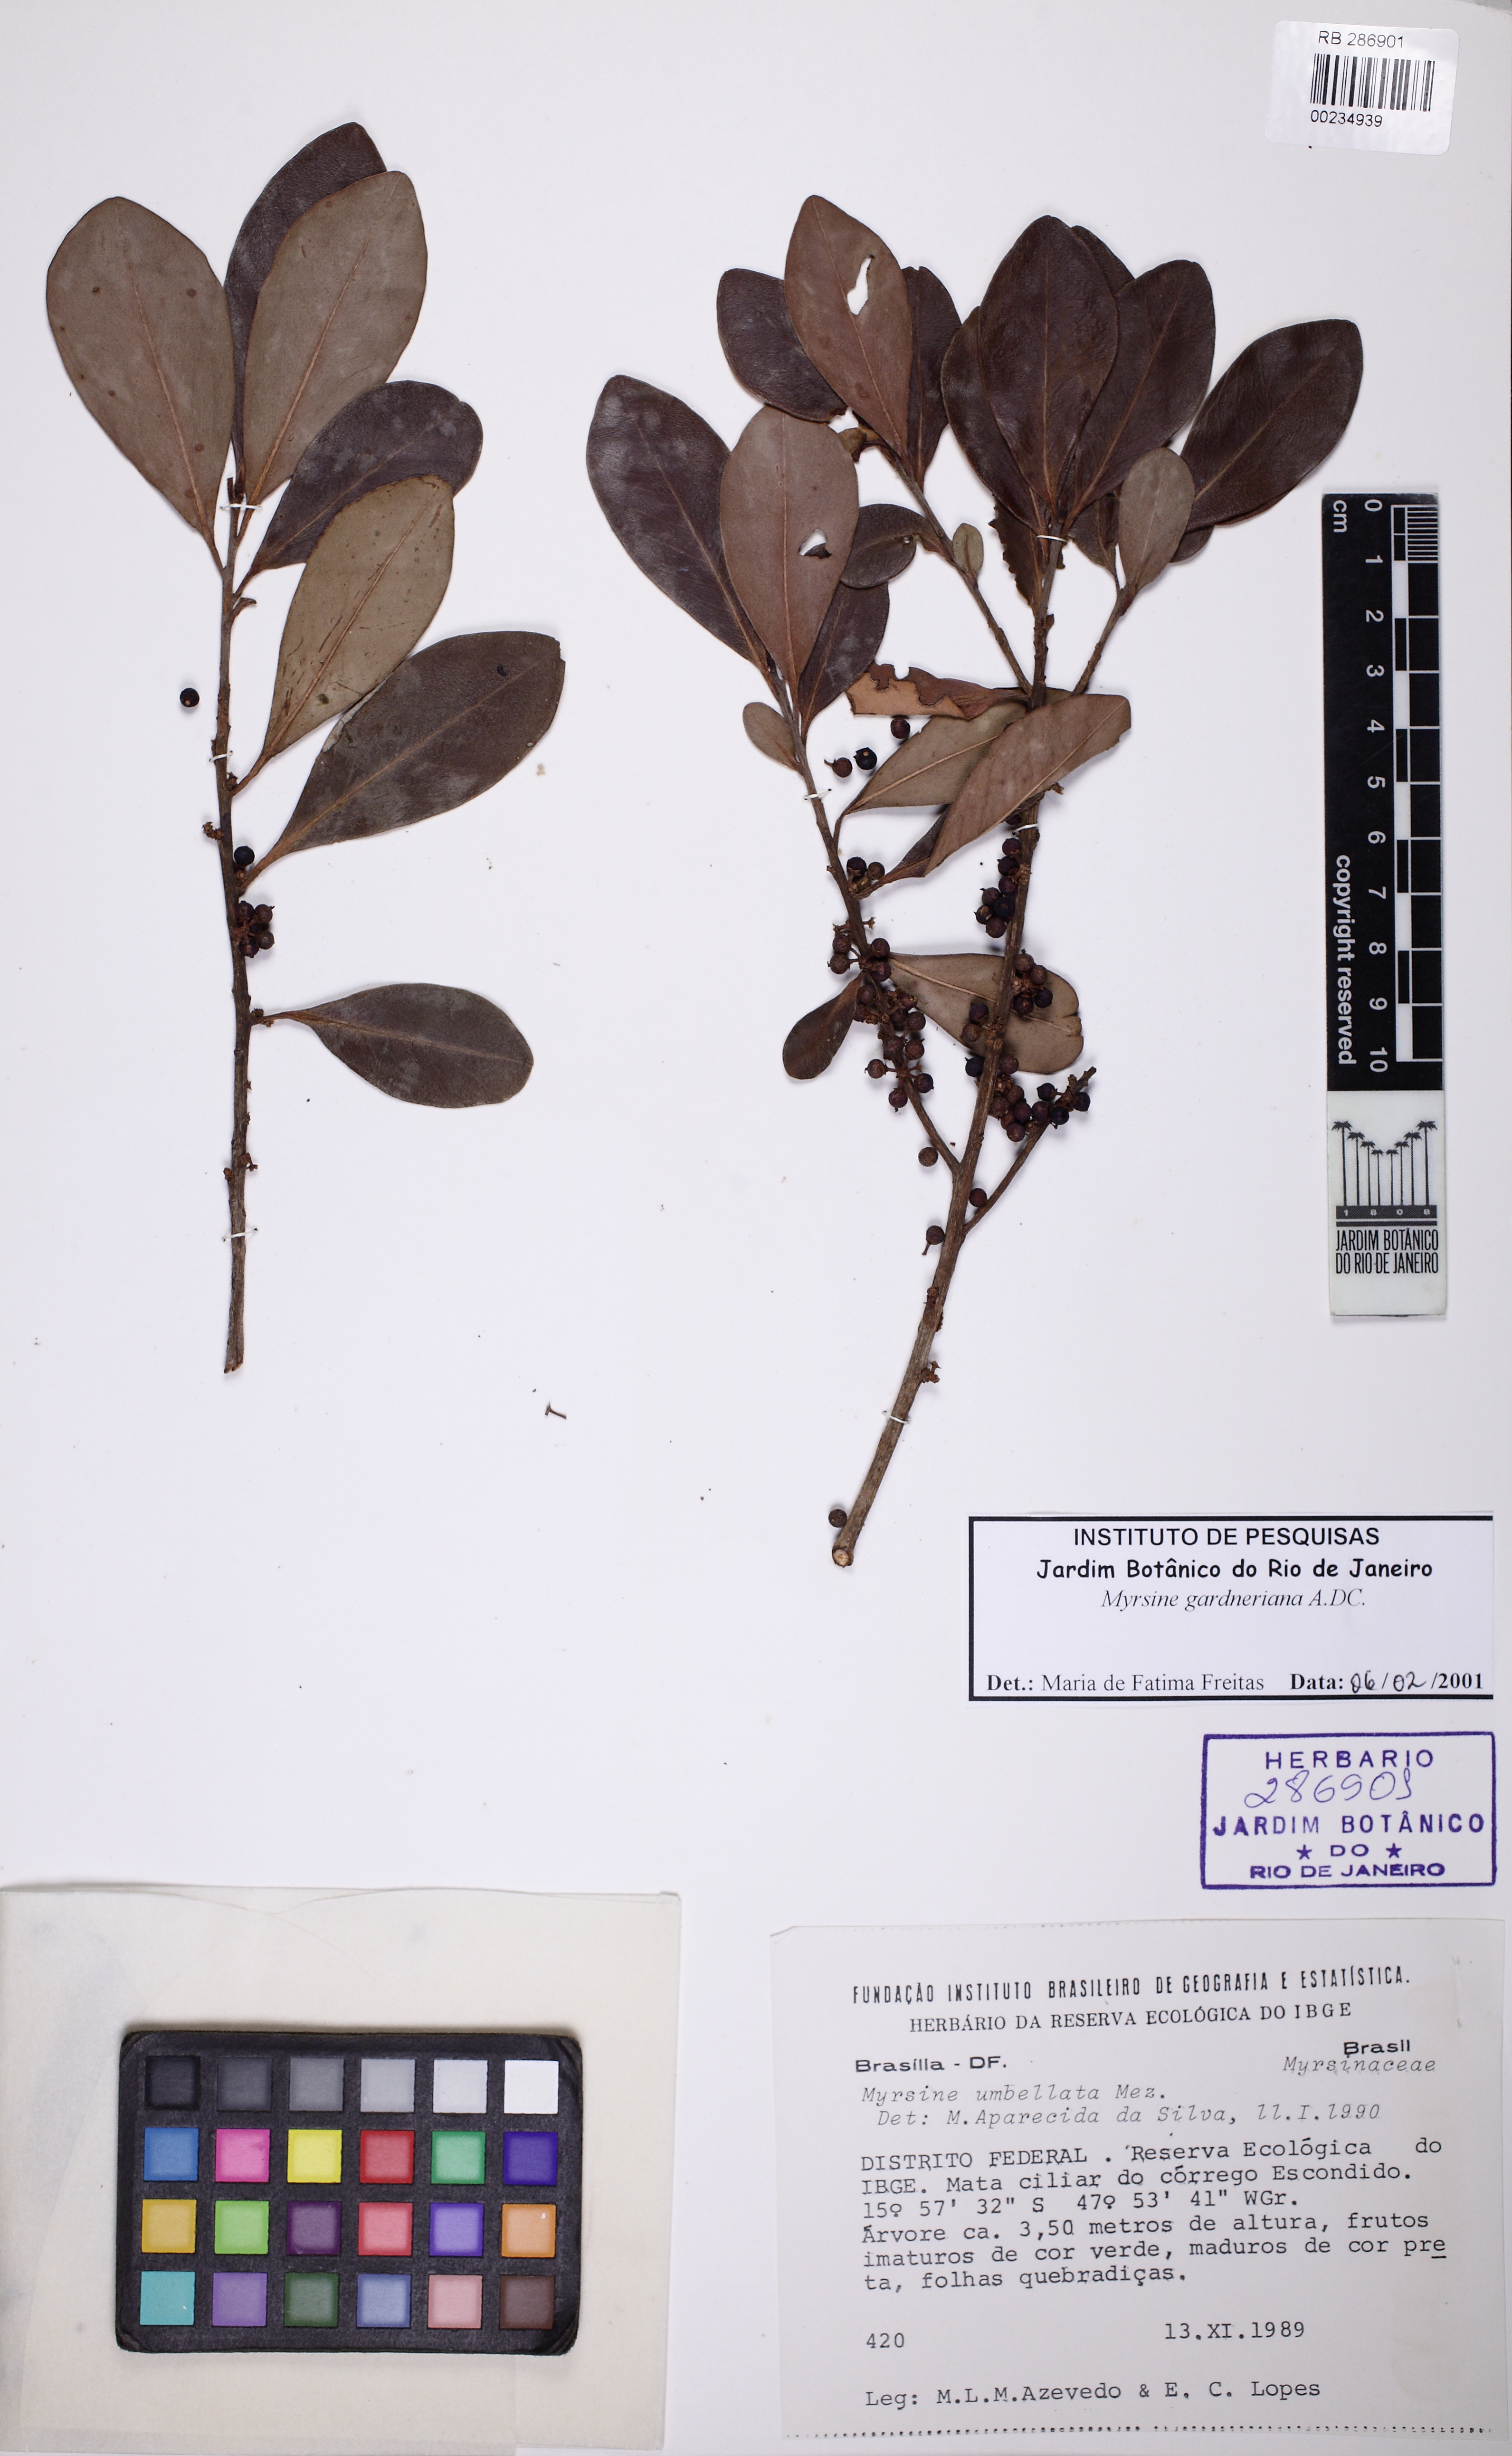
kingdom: Plantae
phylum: Tracheophyta
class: Magnoliopsida
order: Ericales
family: Primulaceae
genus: Myrsine
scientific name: Myrsine gardneriana
